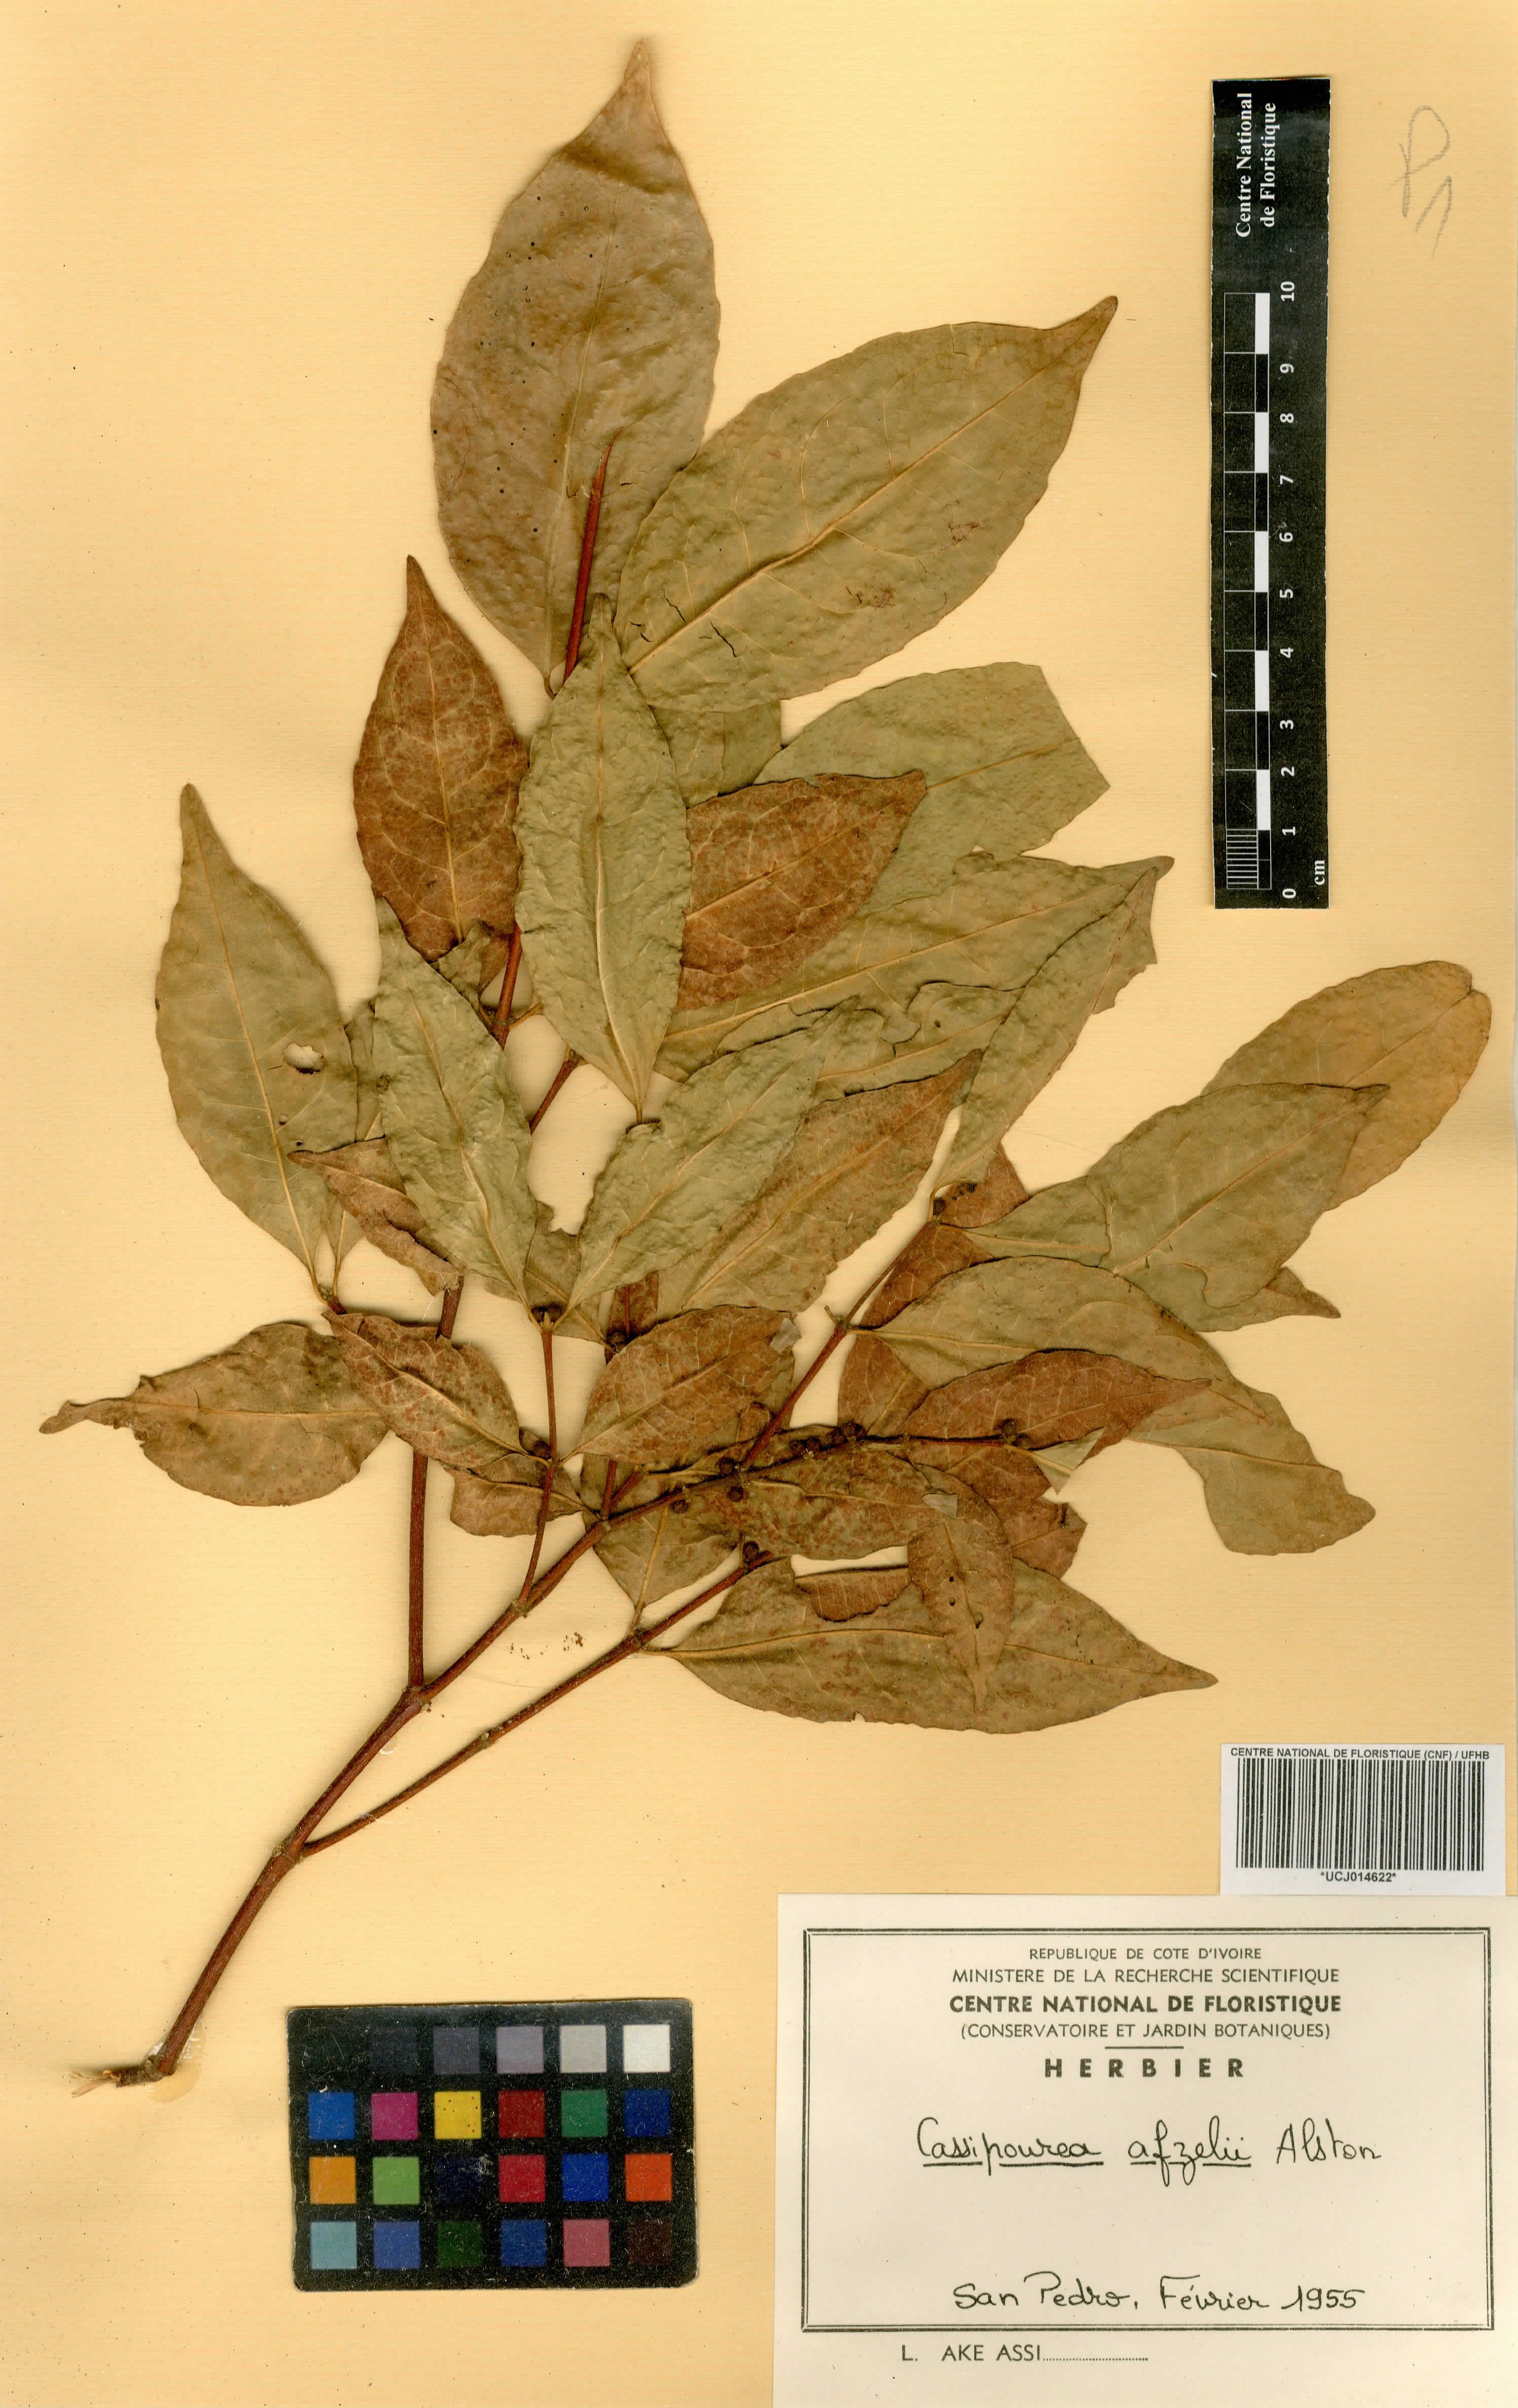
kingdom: Plantae
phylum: Tracheophyta
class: Magnoliopsida
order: Malpighiales
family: Rhizophoraceae
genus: Cassipourea
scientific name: Cassipourea afzelii
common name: Elephant tusk tree
